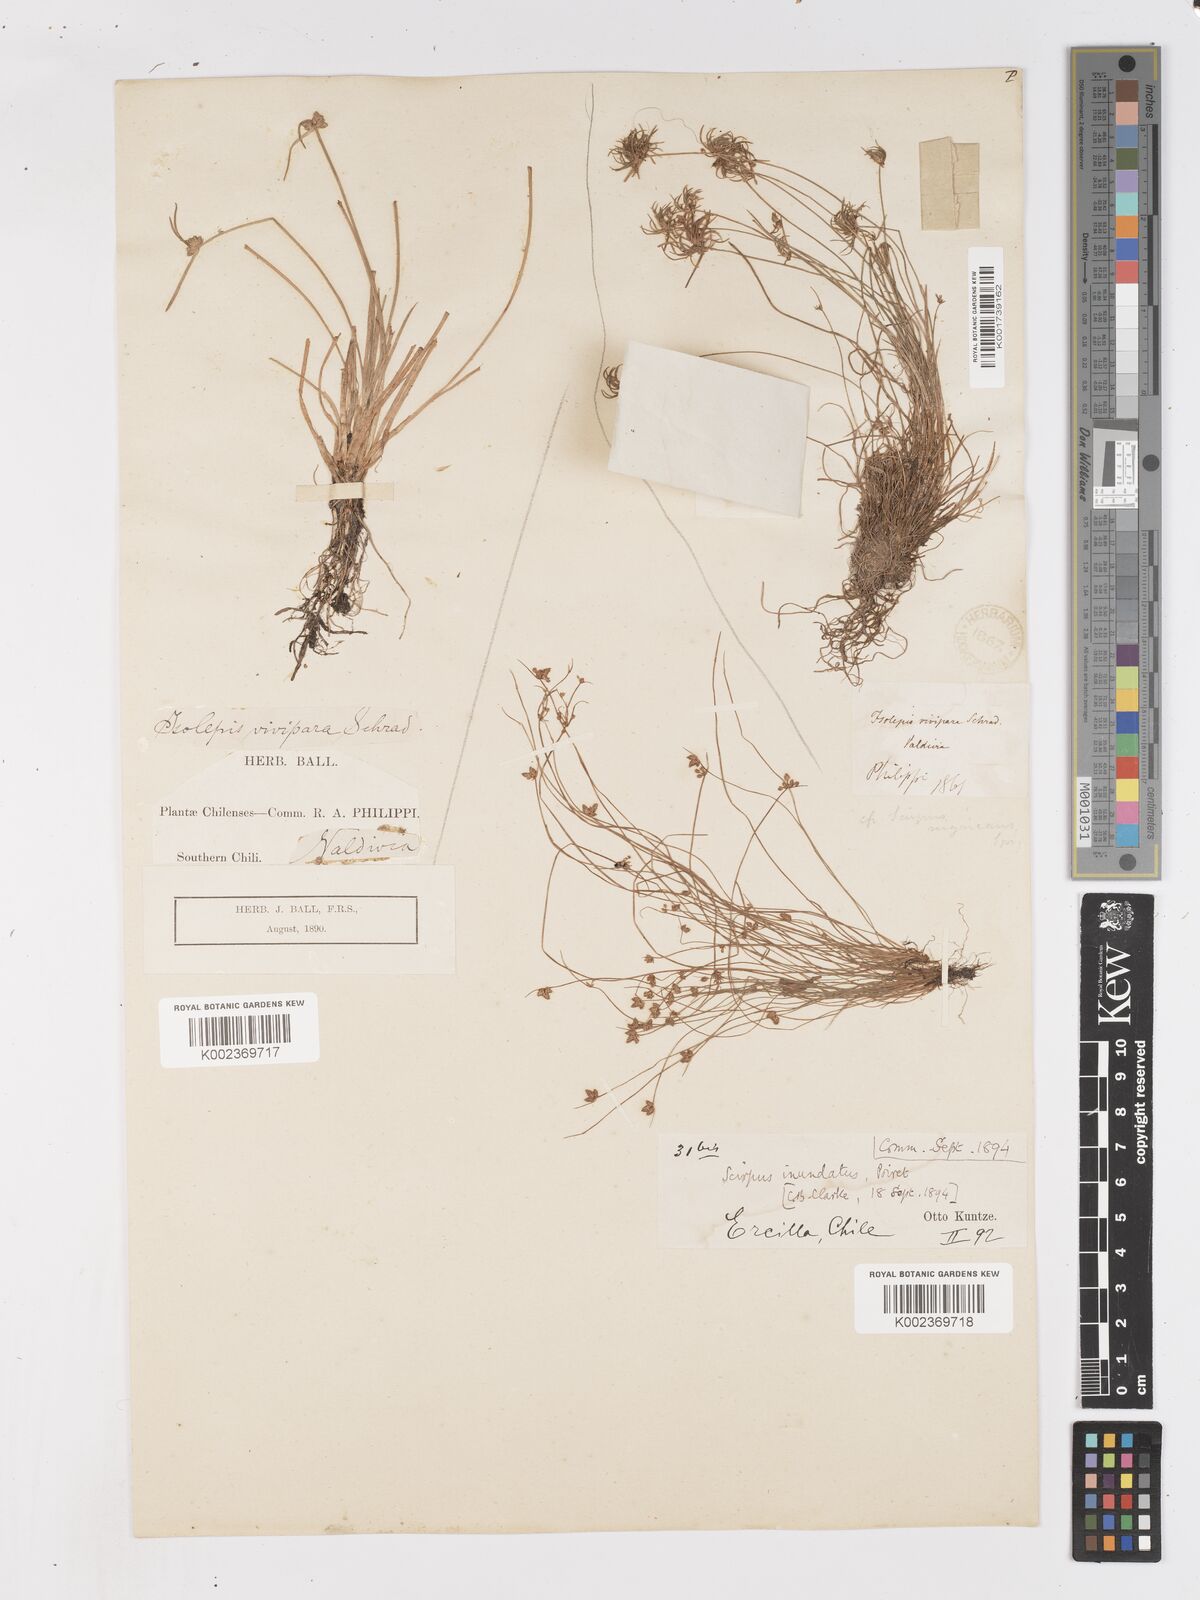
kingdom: Plantae
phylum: Tracheophyta
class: Liliopsida
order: Poales
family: Cyperaceae
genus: Isolepis
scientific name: Isolepis inundata
